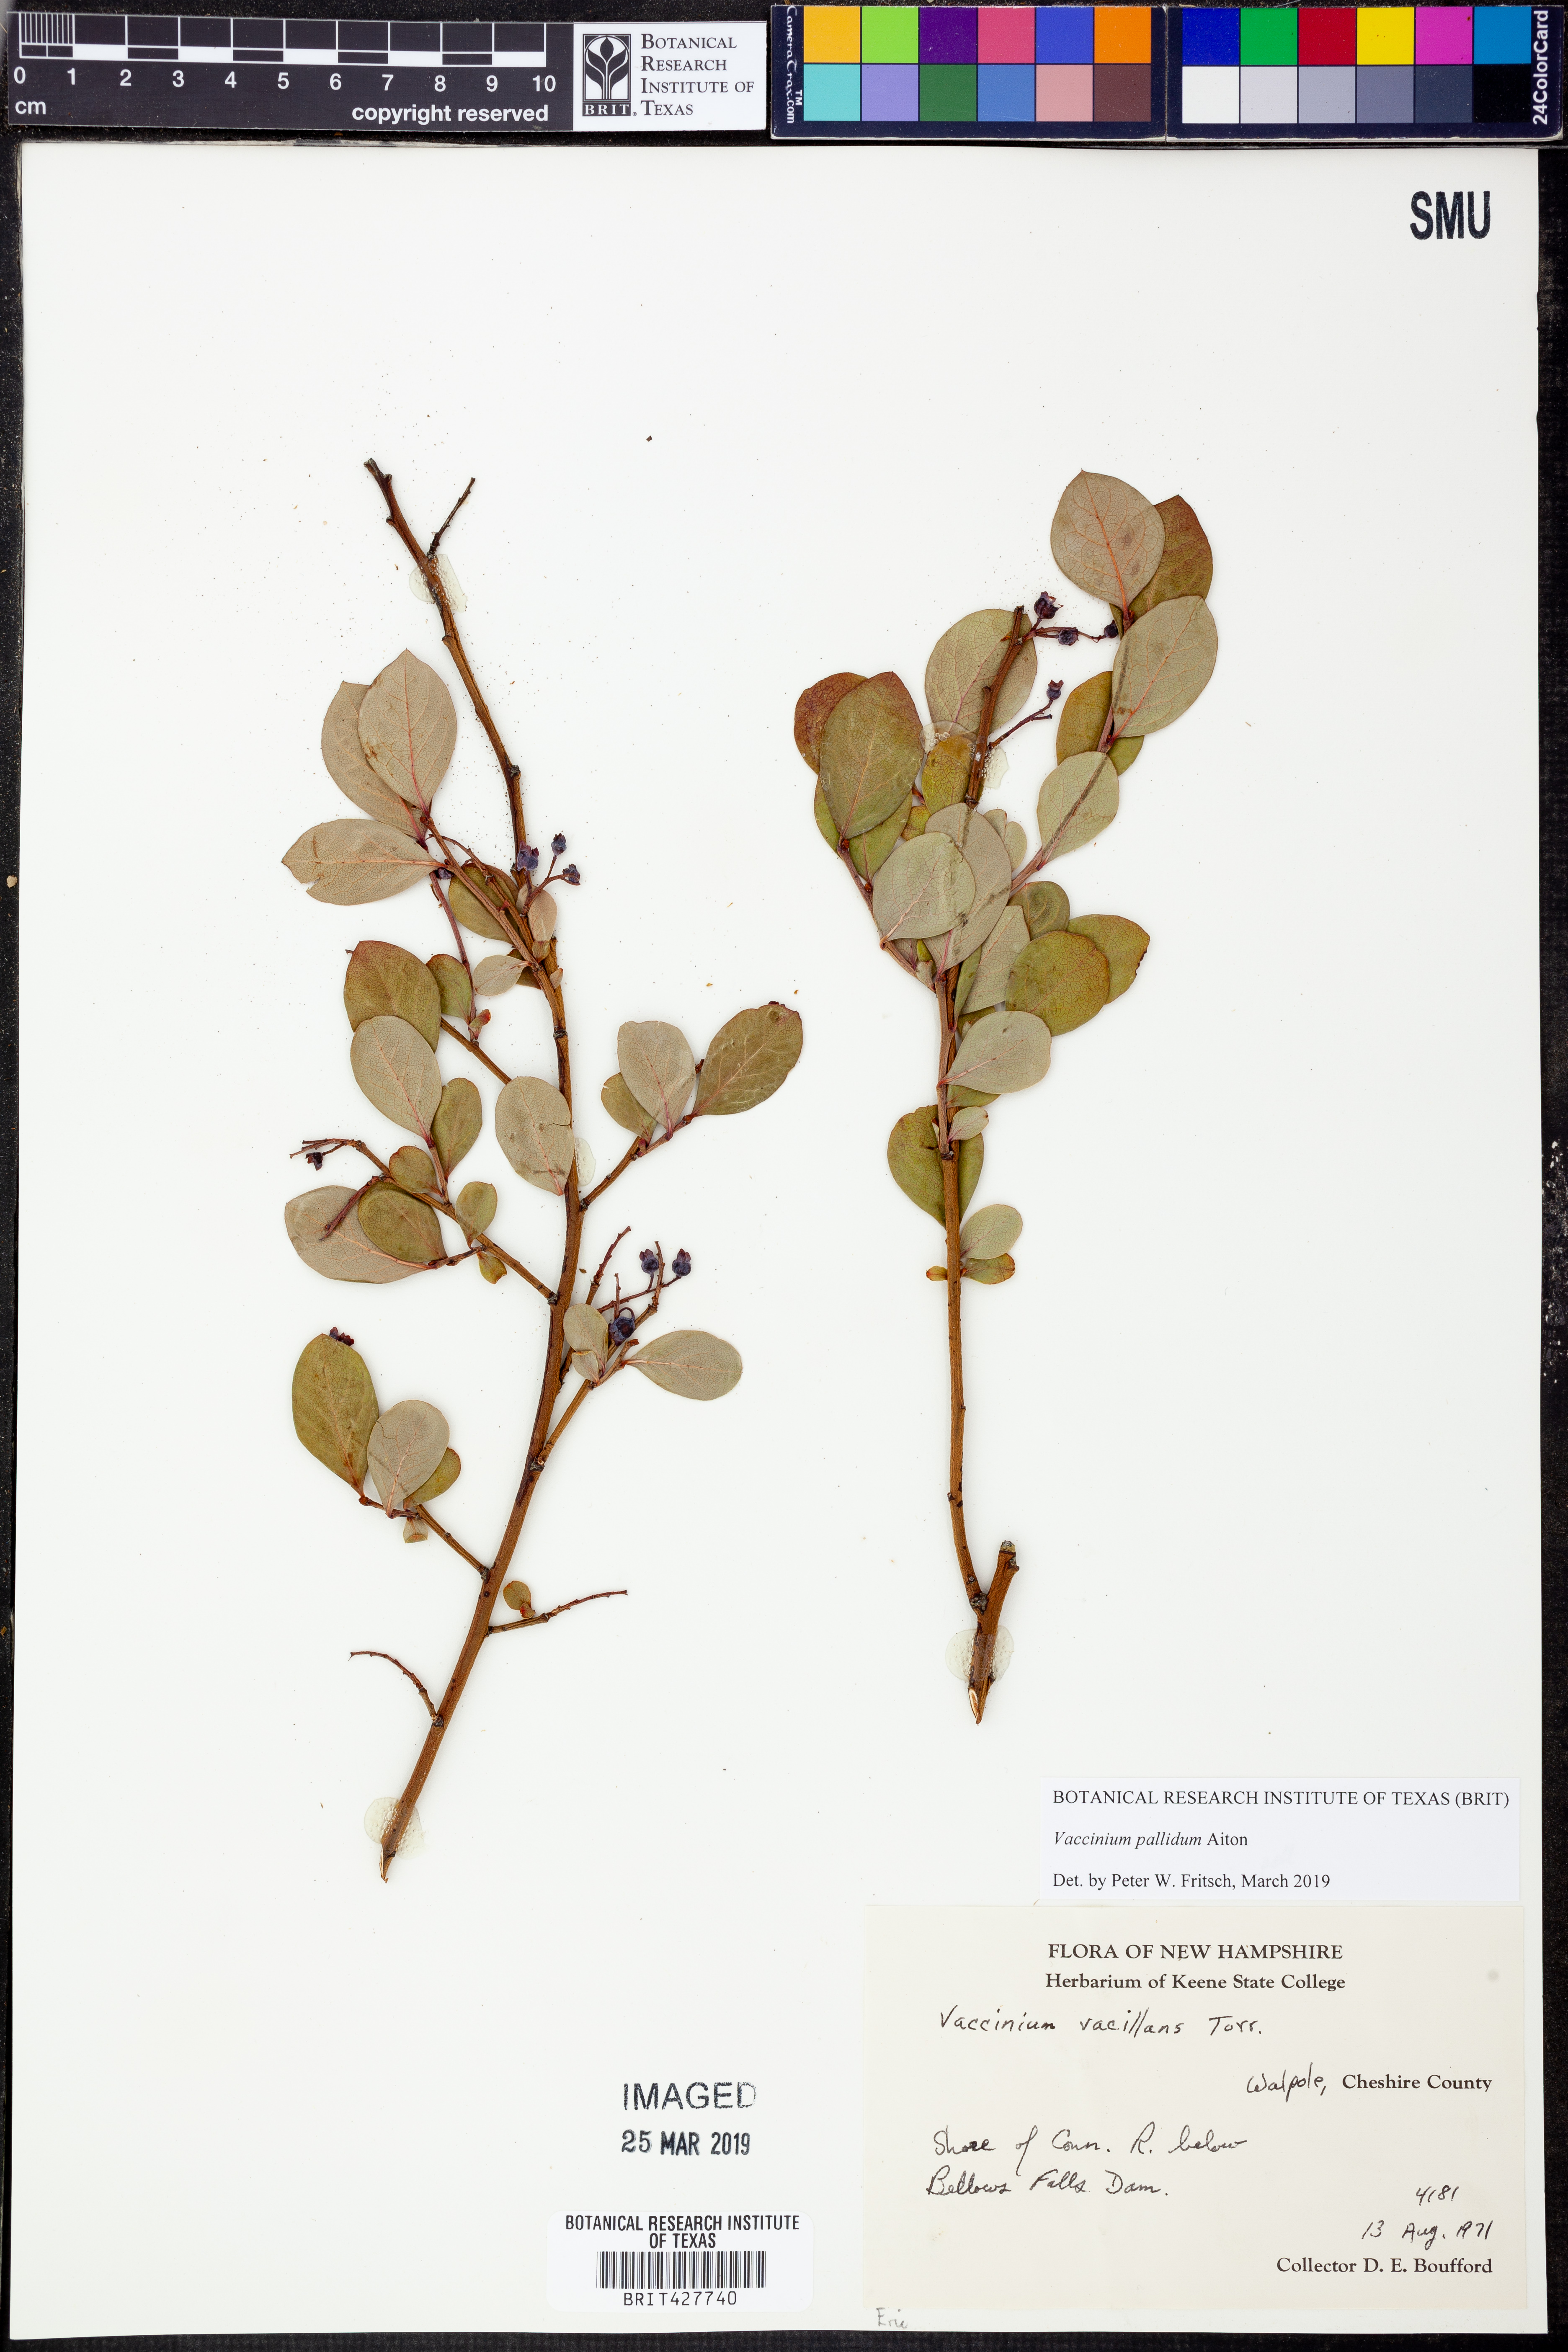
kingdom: Plantae
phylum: Tracheophyta
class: Magnoliopsida
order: Ericales
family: Ericaceae
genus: Vaccinium
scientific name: Vaccinium pallidum
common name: Blue ridge blueberry
